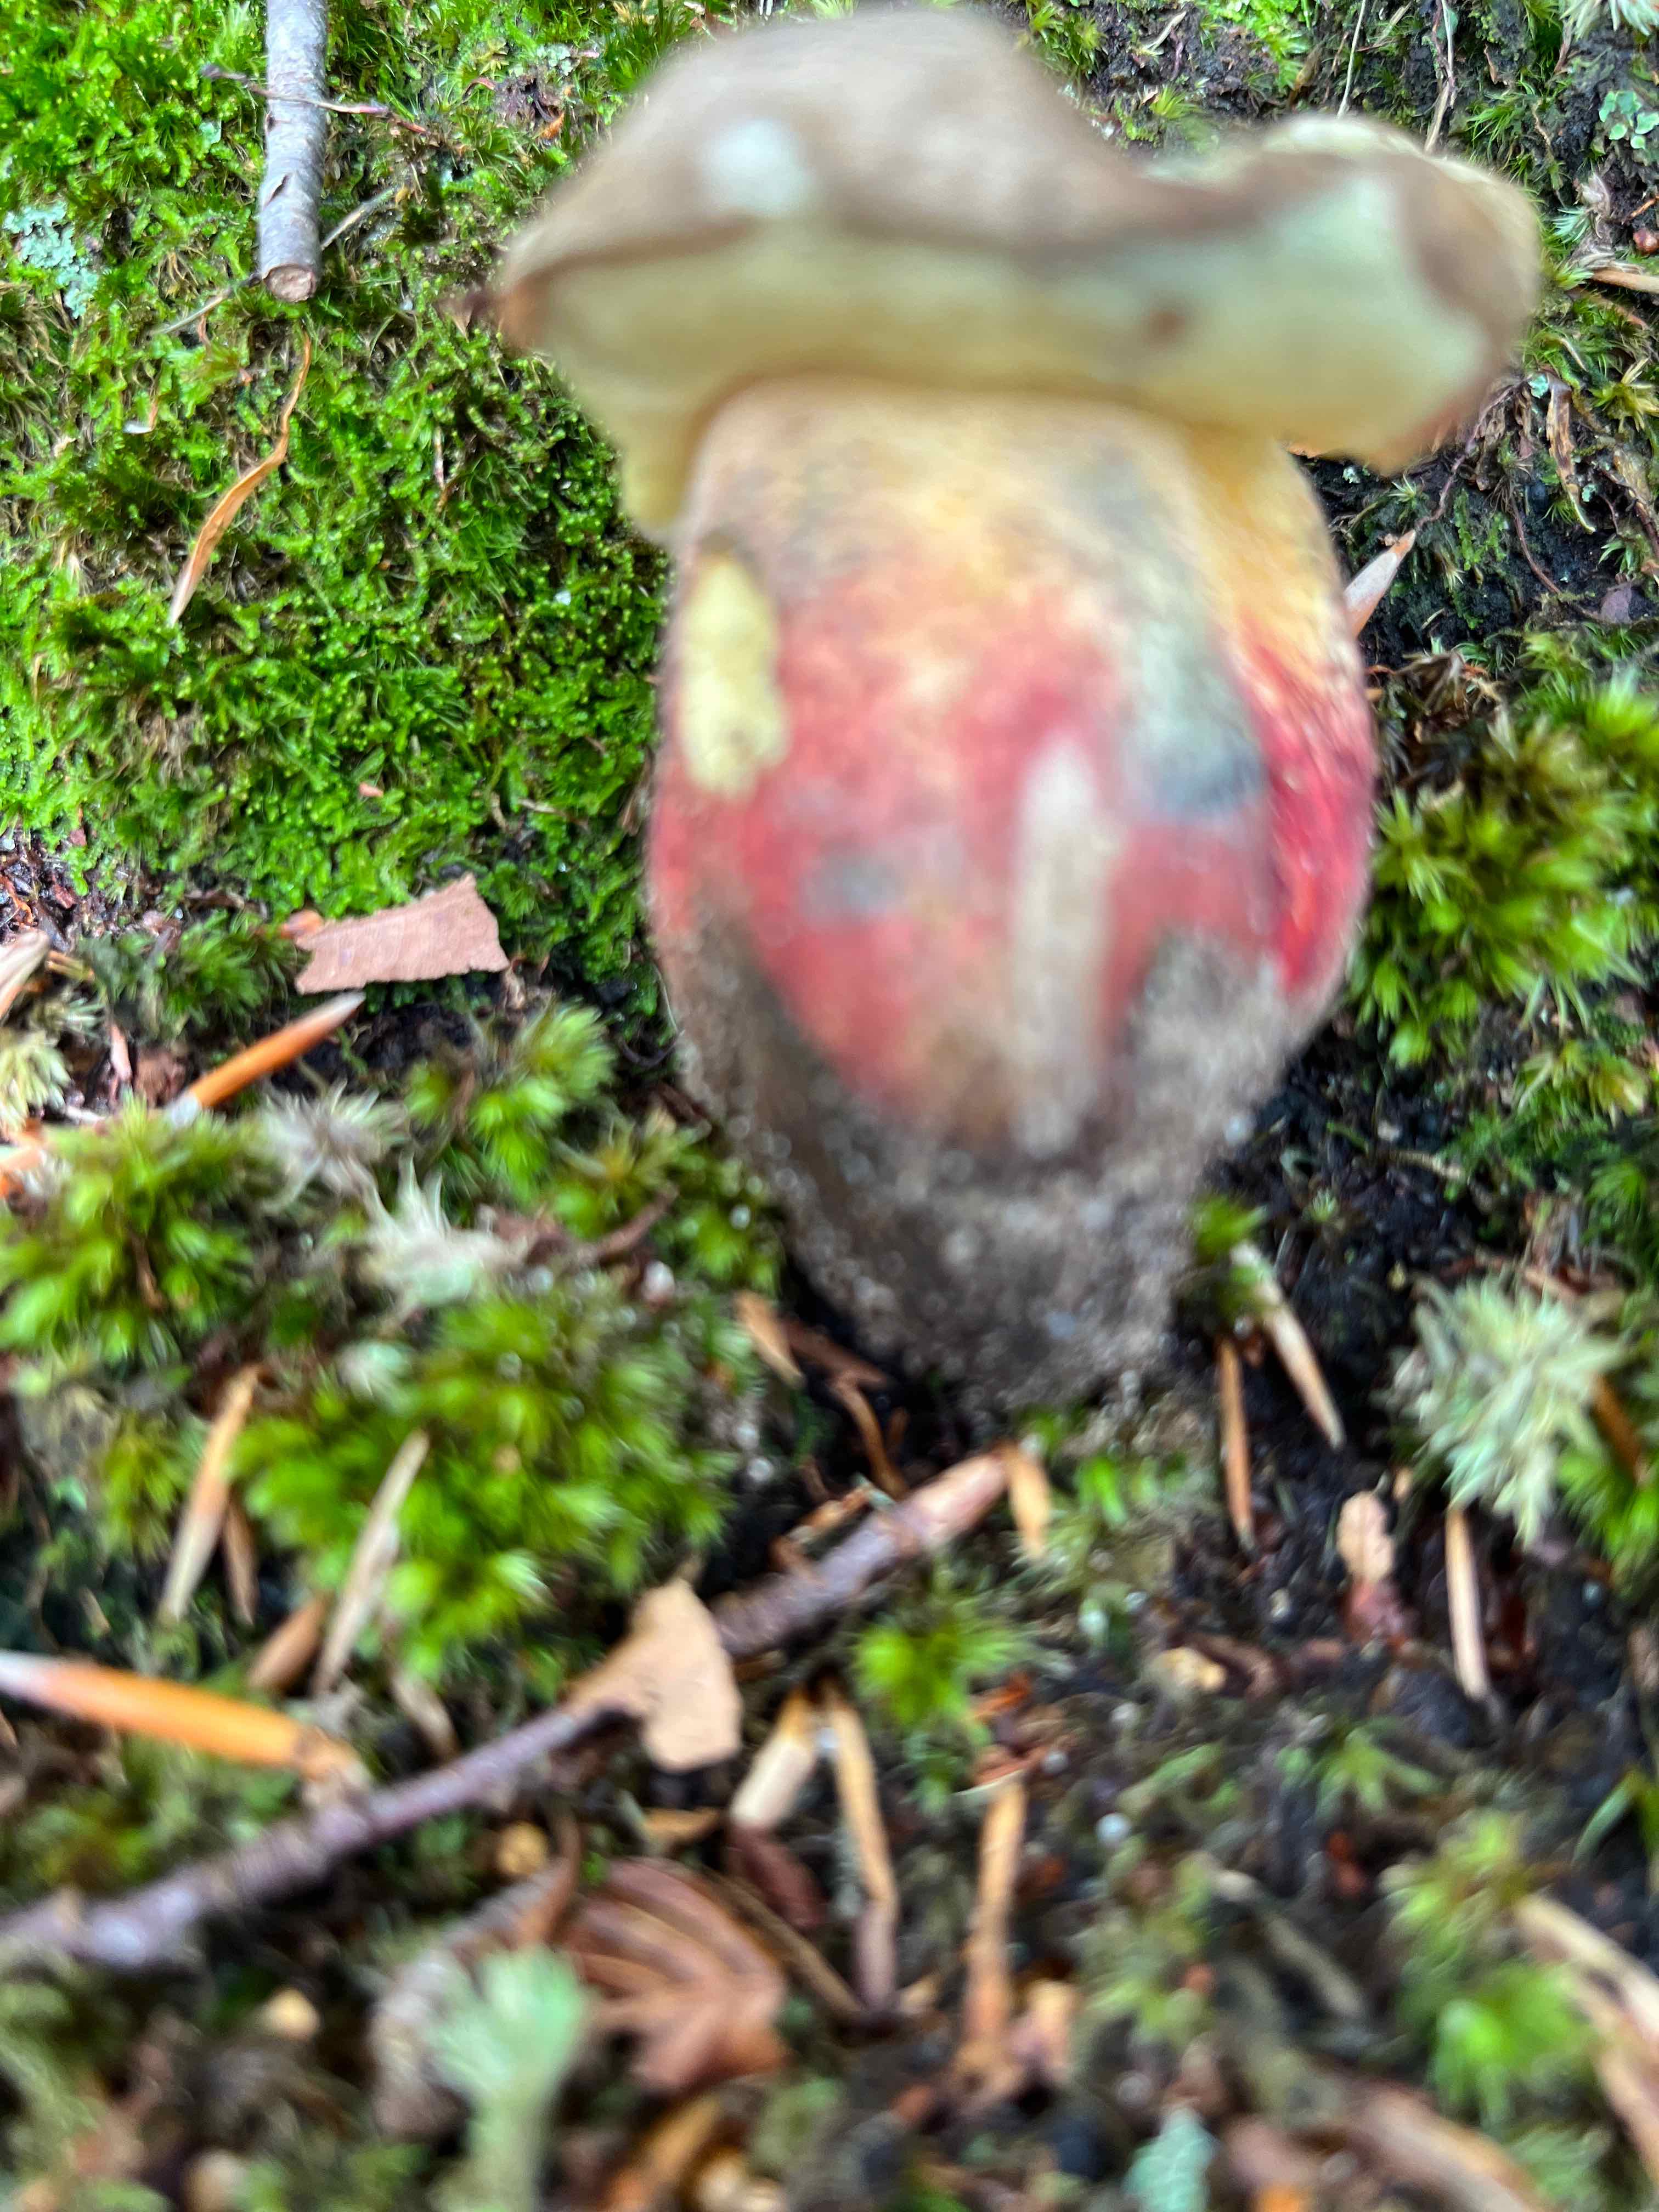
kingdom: Fungi
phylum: Basidiomycota
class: Agaricomycetes
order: Boletales
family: Boletaceae
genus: Caloboletus
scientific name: Caloboletus calopus
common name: skønfodet rørhat
